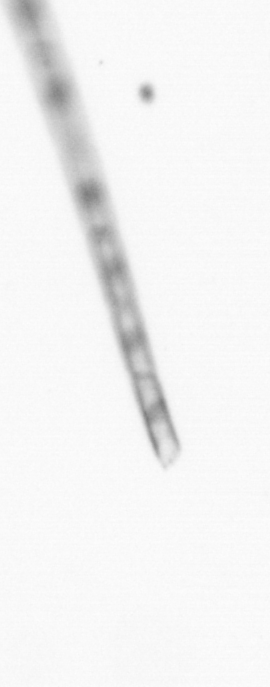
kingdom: Chromista
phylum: Ochrophyta
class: Bacillariophyceae
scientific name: Bacillariophyceae
